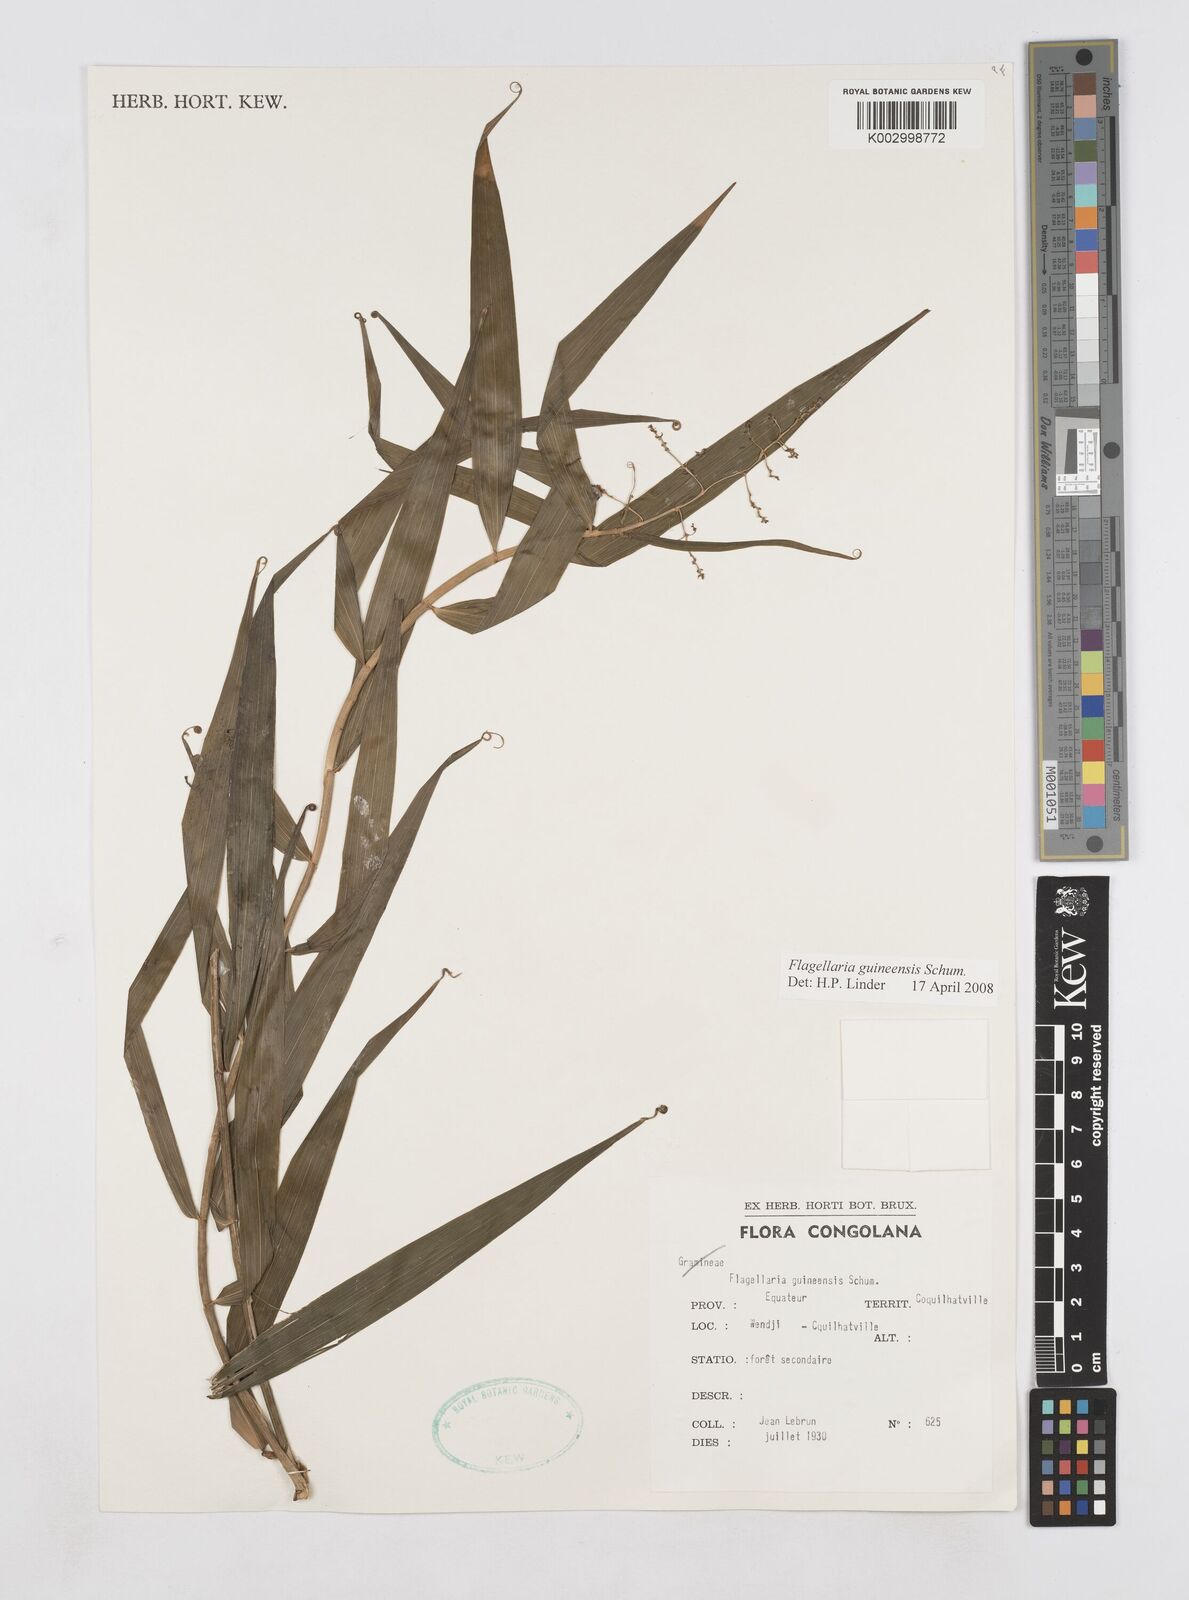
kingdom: Plantae
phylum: Tracheophyta
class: Liliopsida
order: Poales
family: Flagellariaceae
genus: Flagellaria
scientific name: Flagellaria guineensis
